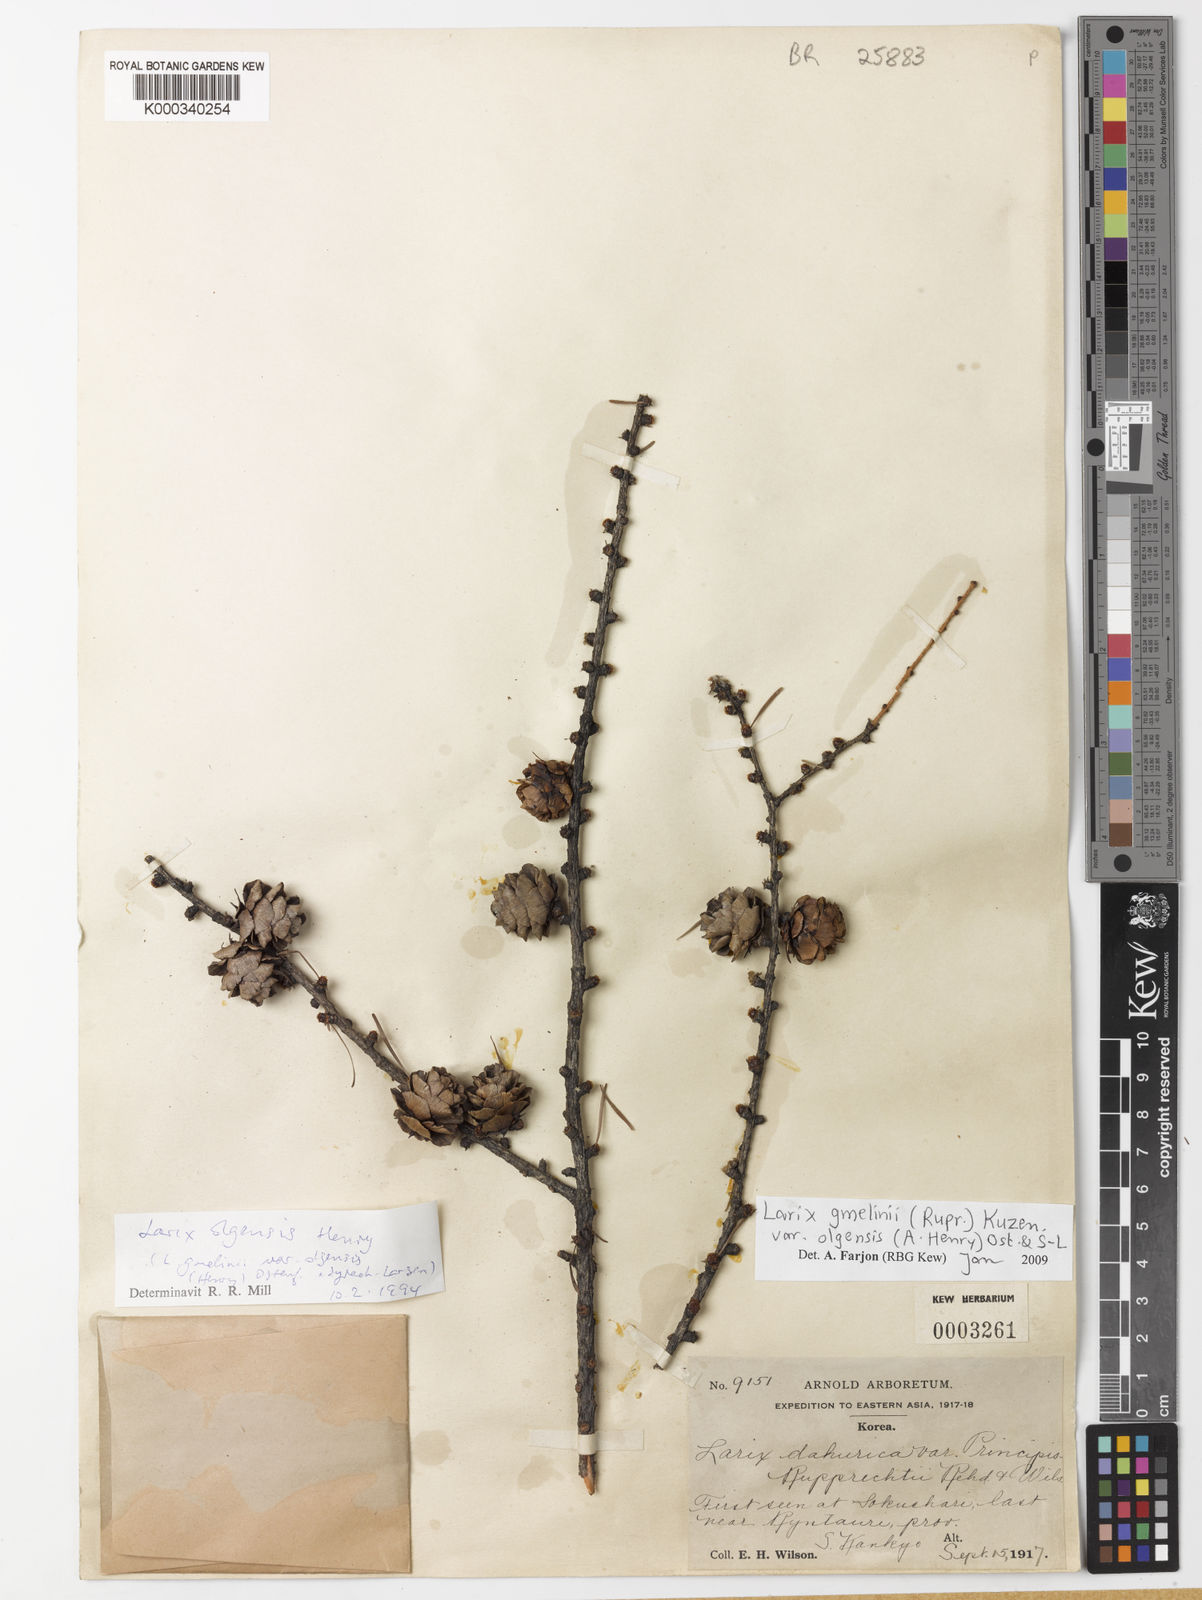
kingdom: Plantae
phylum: Tracheophyta
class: Pinopsida
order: Pinales
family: Pinaceae
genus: Larix
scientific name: Larix gmelinii
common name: Dahurian larch
